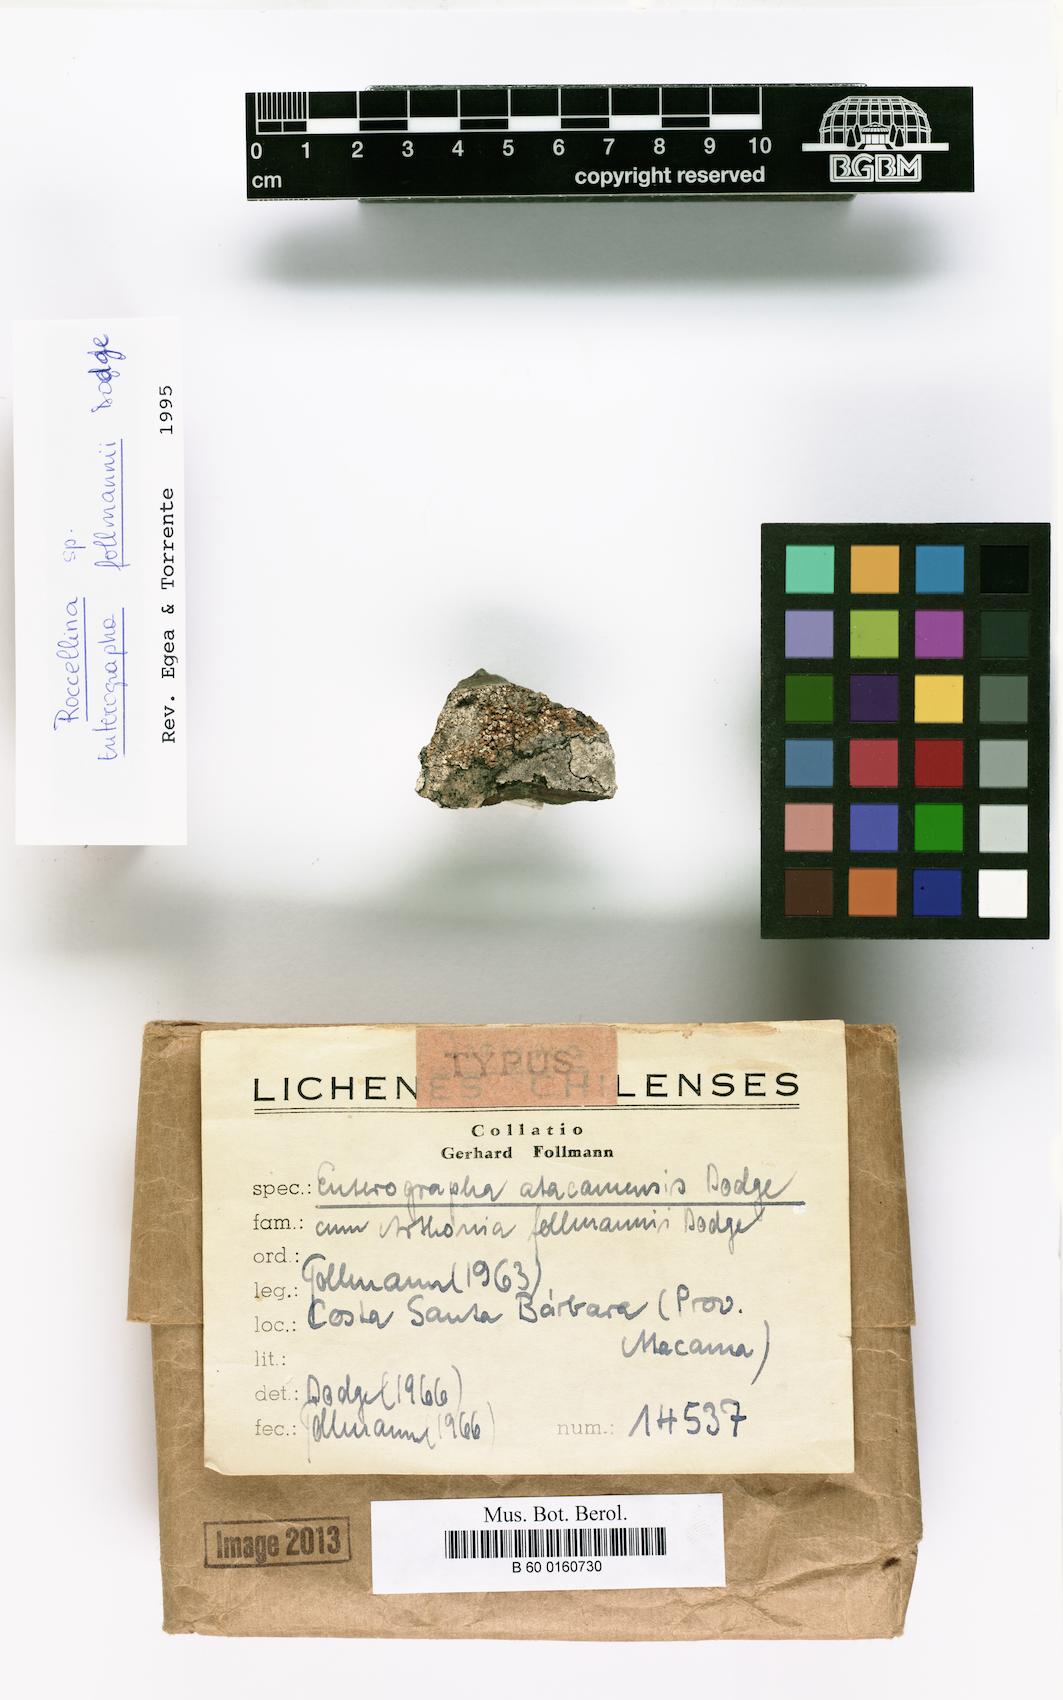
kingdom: Fungi
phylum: Ascomycota
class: Arthoniomycetes
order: Arthoniales
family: Roccellaceae
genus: Enterographa
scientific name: Enterographa atacamensis
